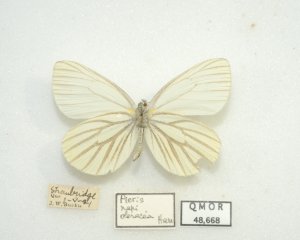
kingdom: Animalia
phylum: Arthropoda
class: Insecta
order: Lepidoptera
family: Pieridae
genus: Pieris
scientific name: Pieris oleracea
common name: Mustard White
